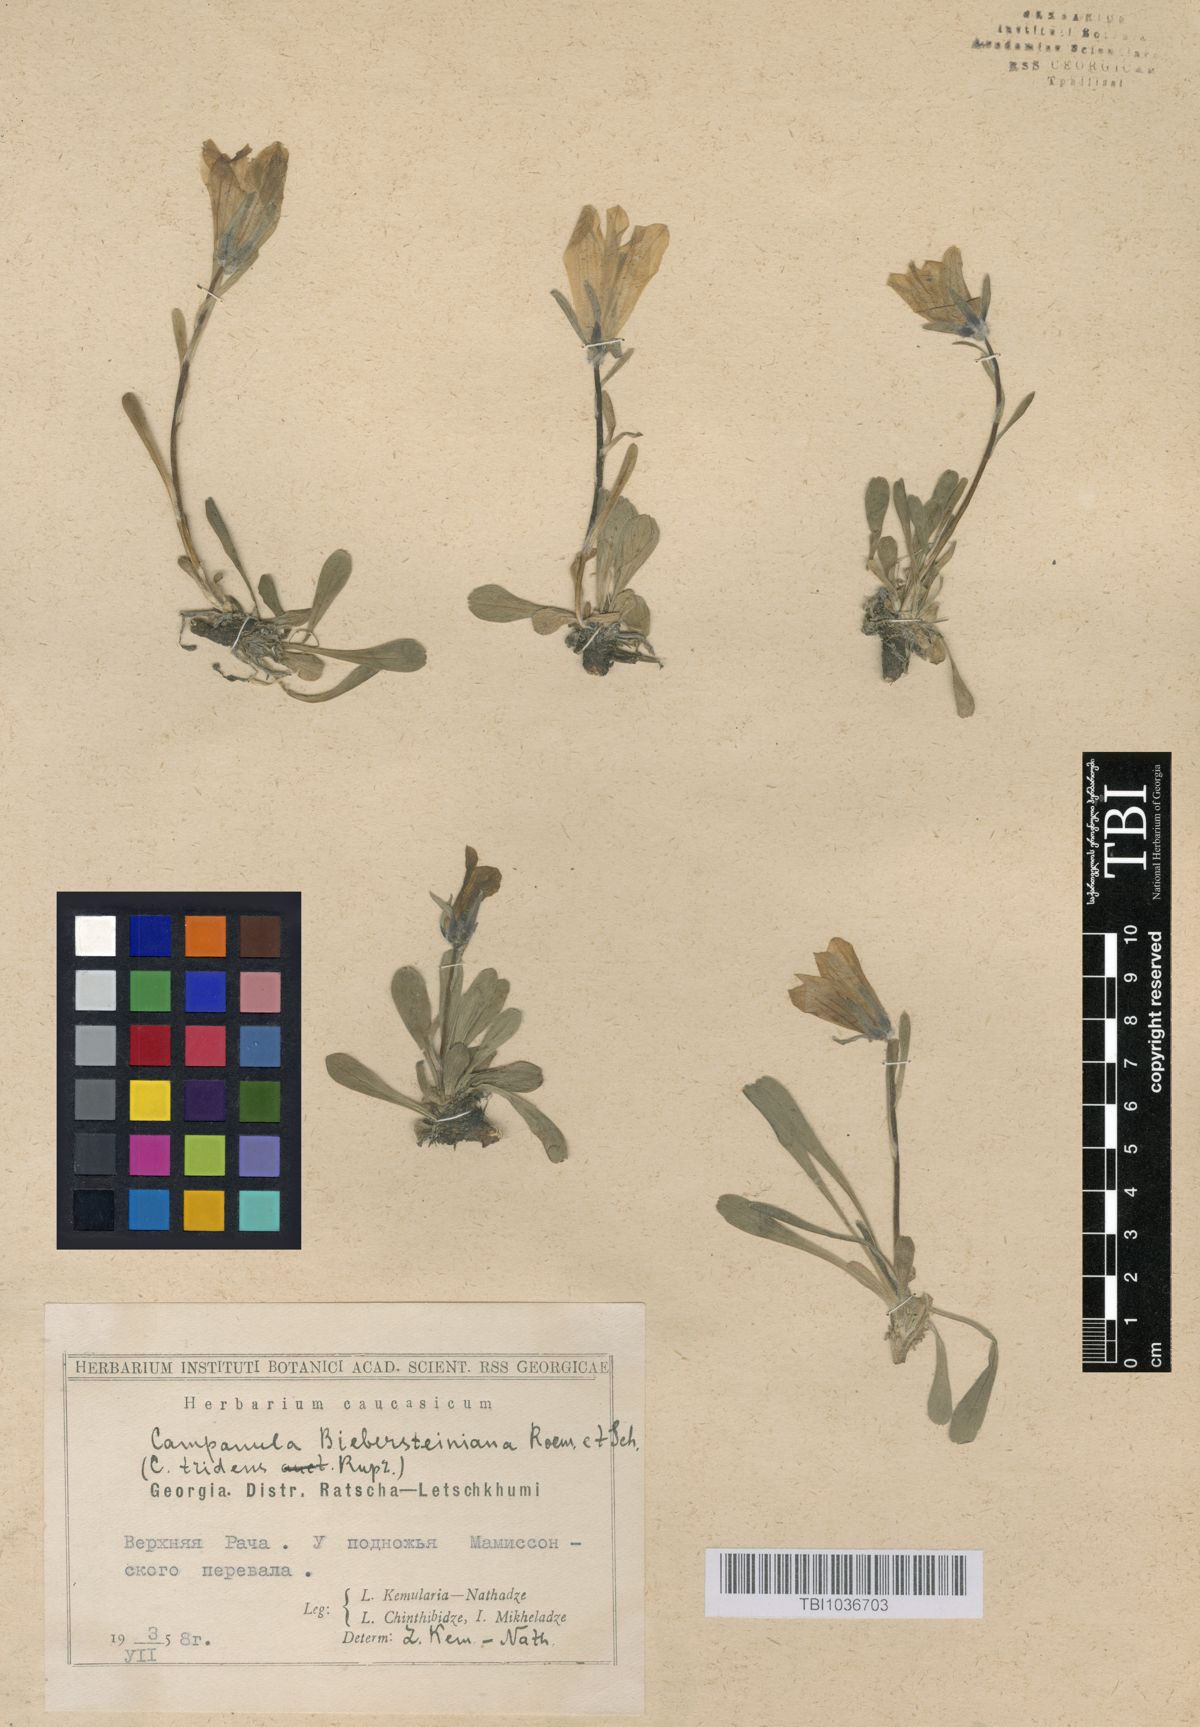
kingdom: Plantae
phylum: Tracheophyta
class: Magnoliopsida
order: Asterales
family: Campanulaceae
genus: Campanula
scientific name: Campanula tridentata
